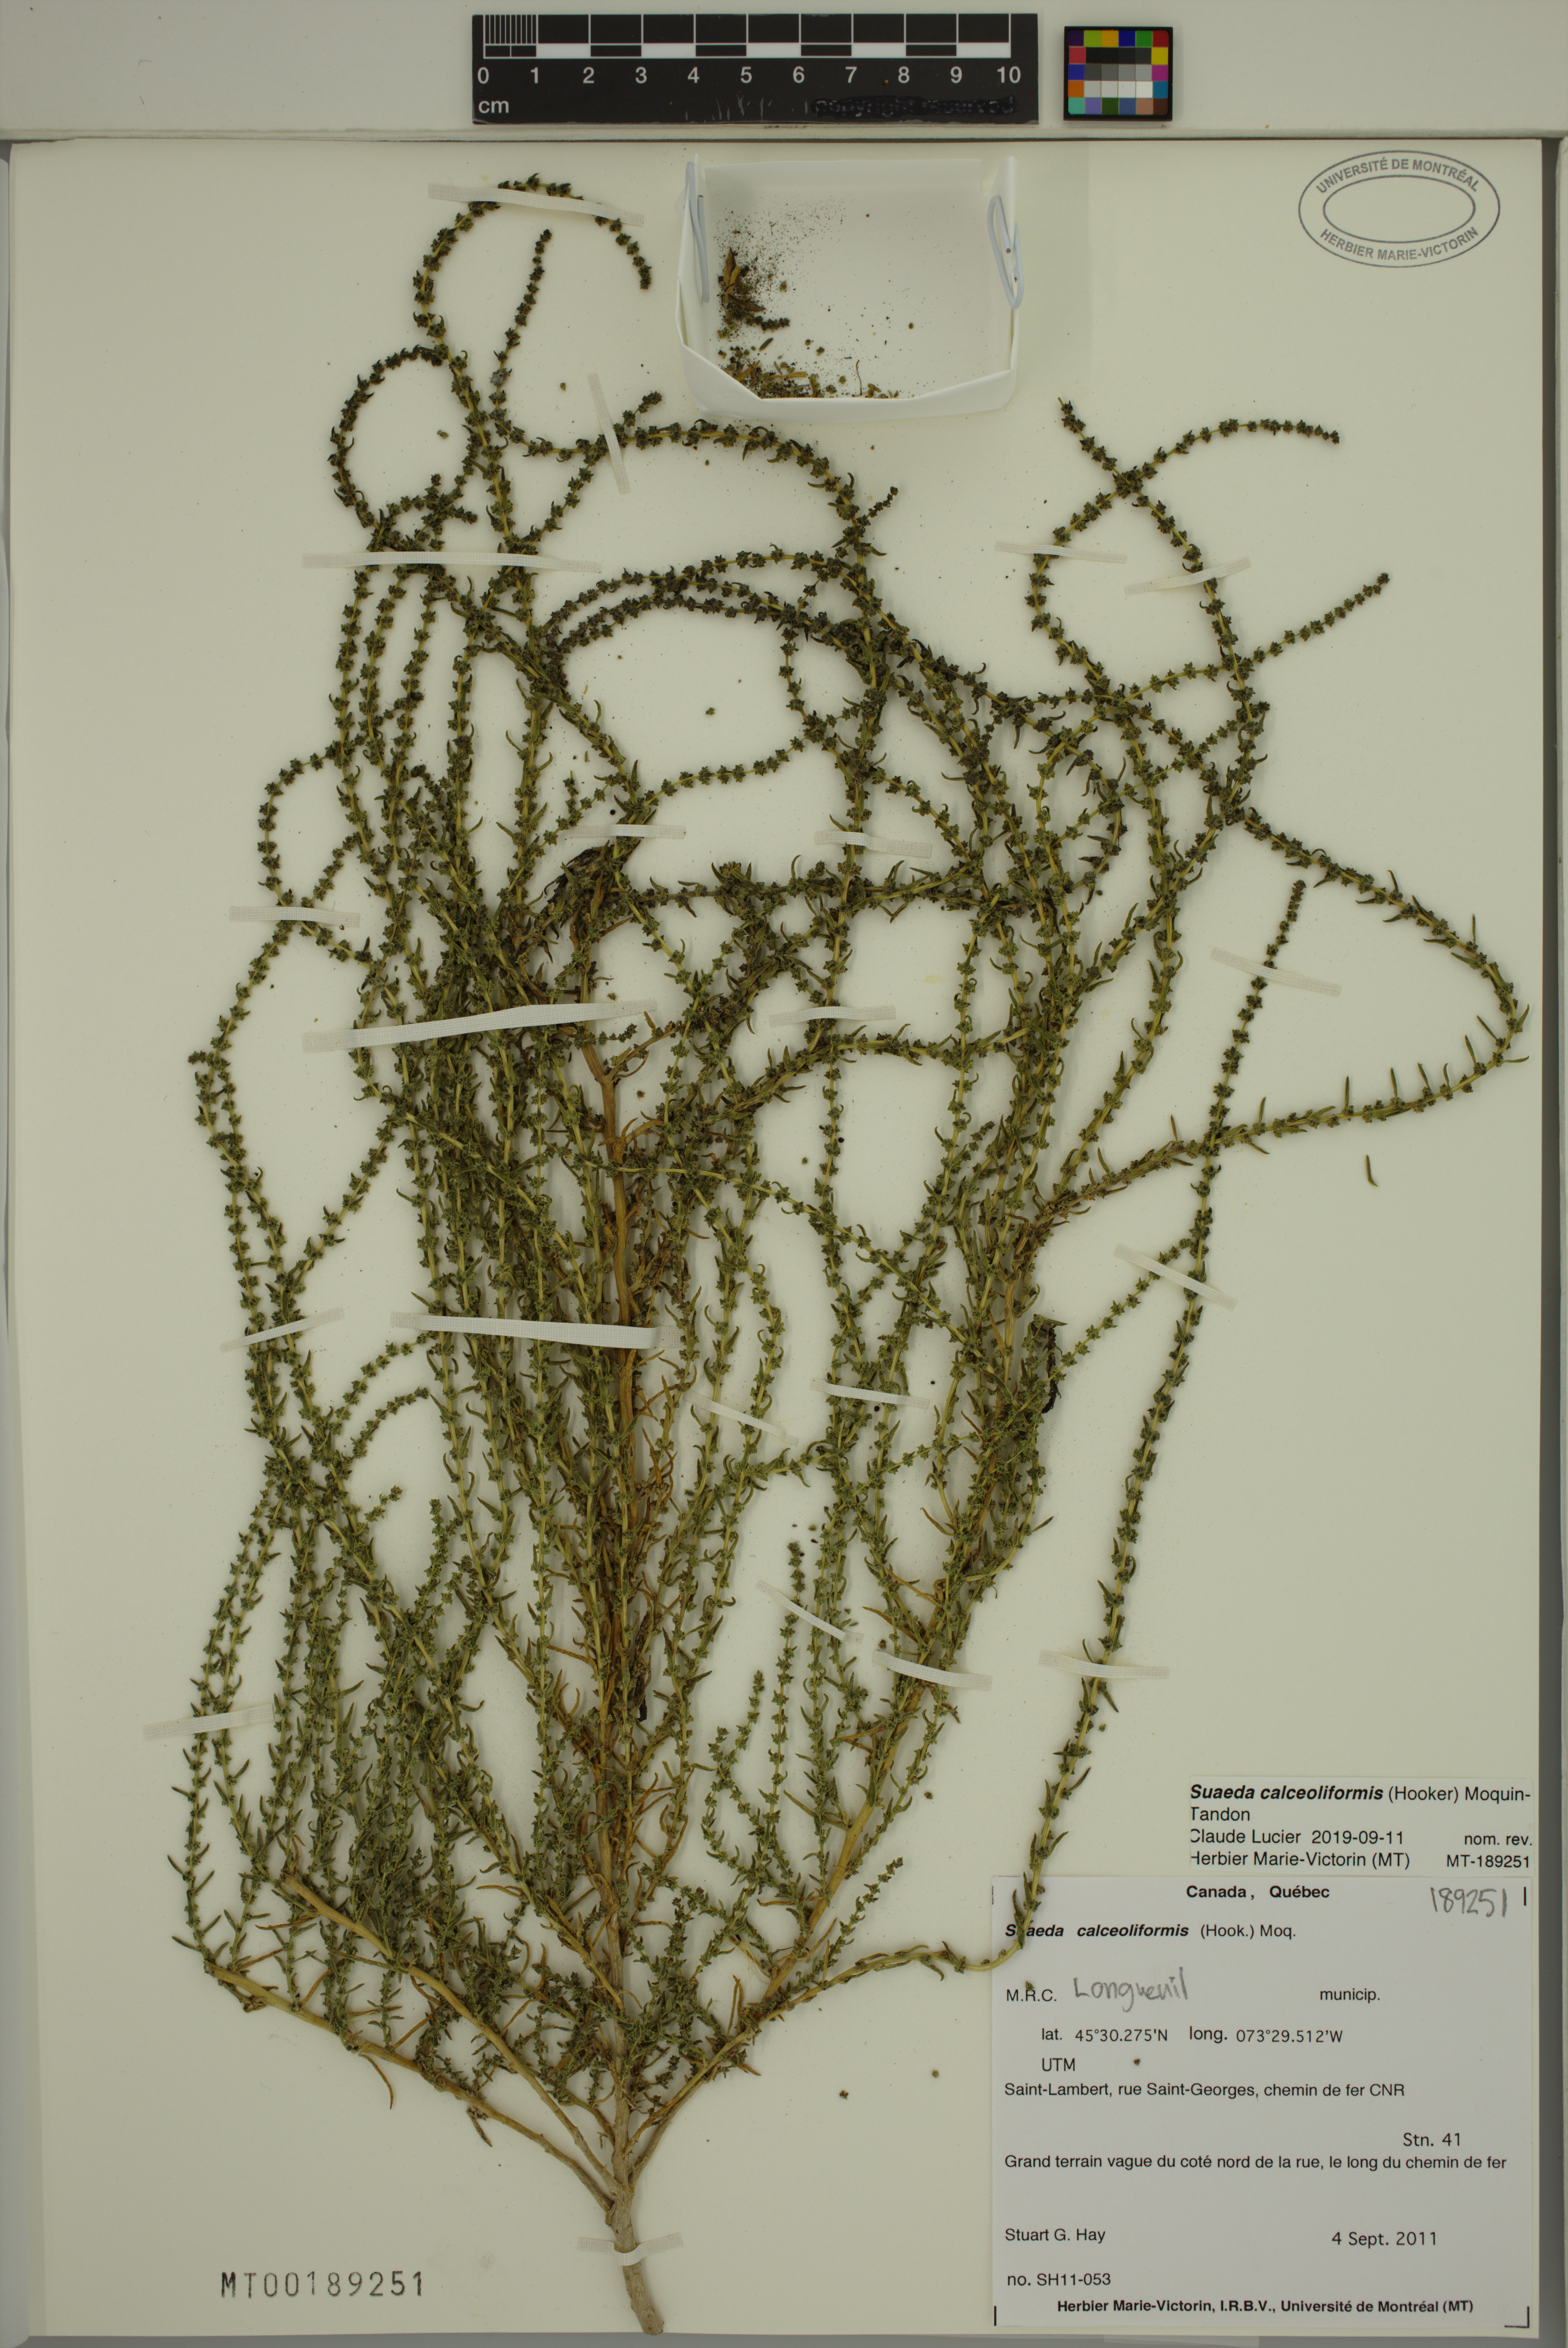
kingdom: Plantae
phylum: Tracheophyta
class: Magnoliopsida
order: Caryophyllales
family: Amaranthaceae
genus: Suaeda
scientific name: Suaeda calceoliformis
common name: Pursh's seepweed
